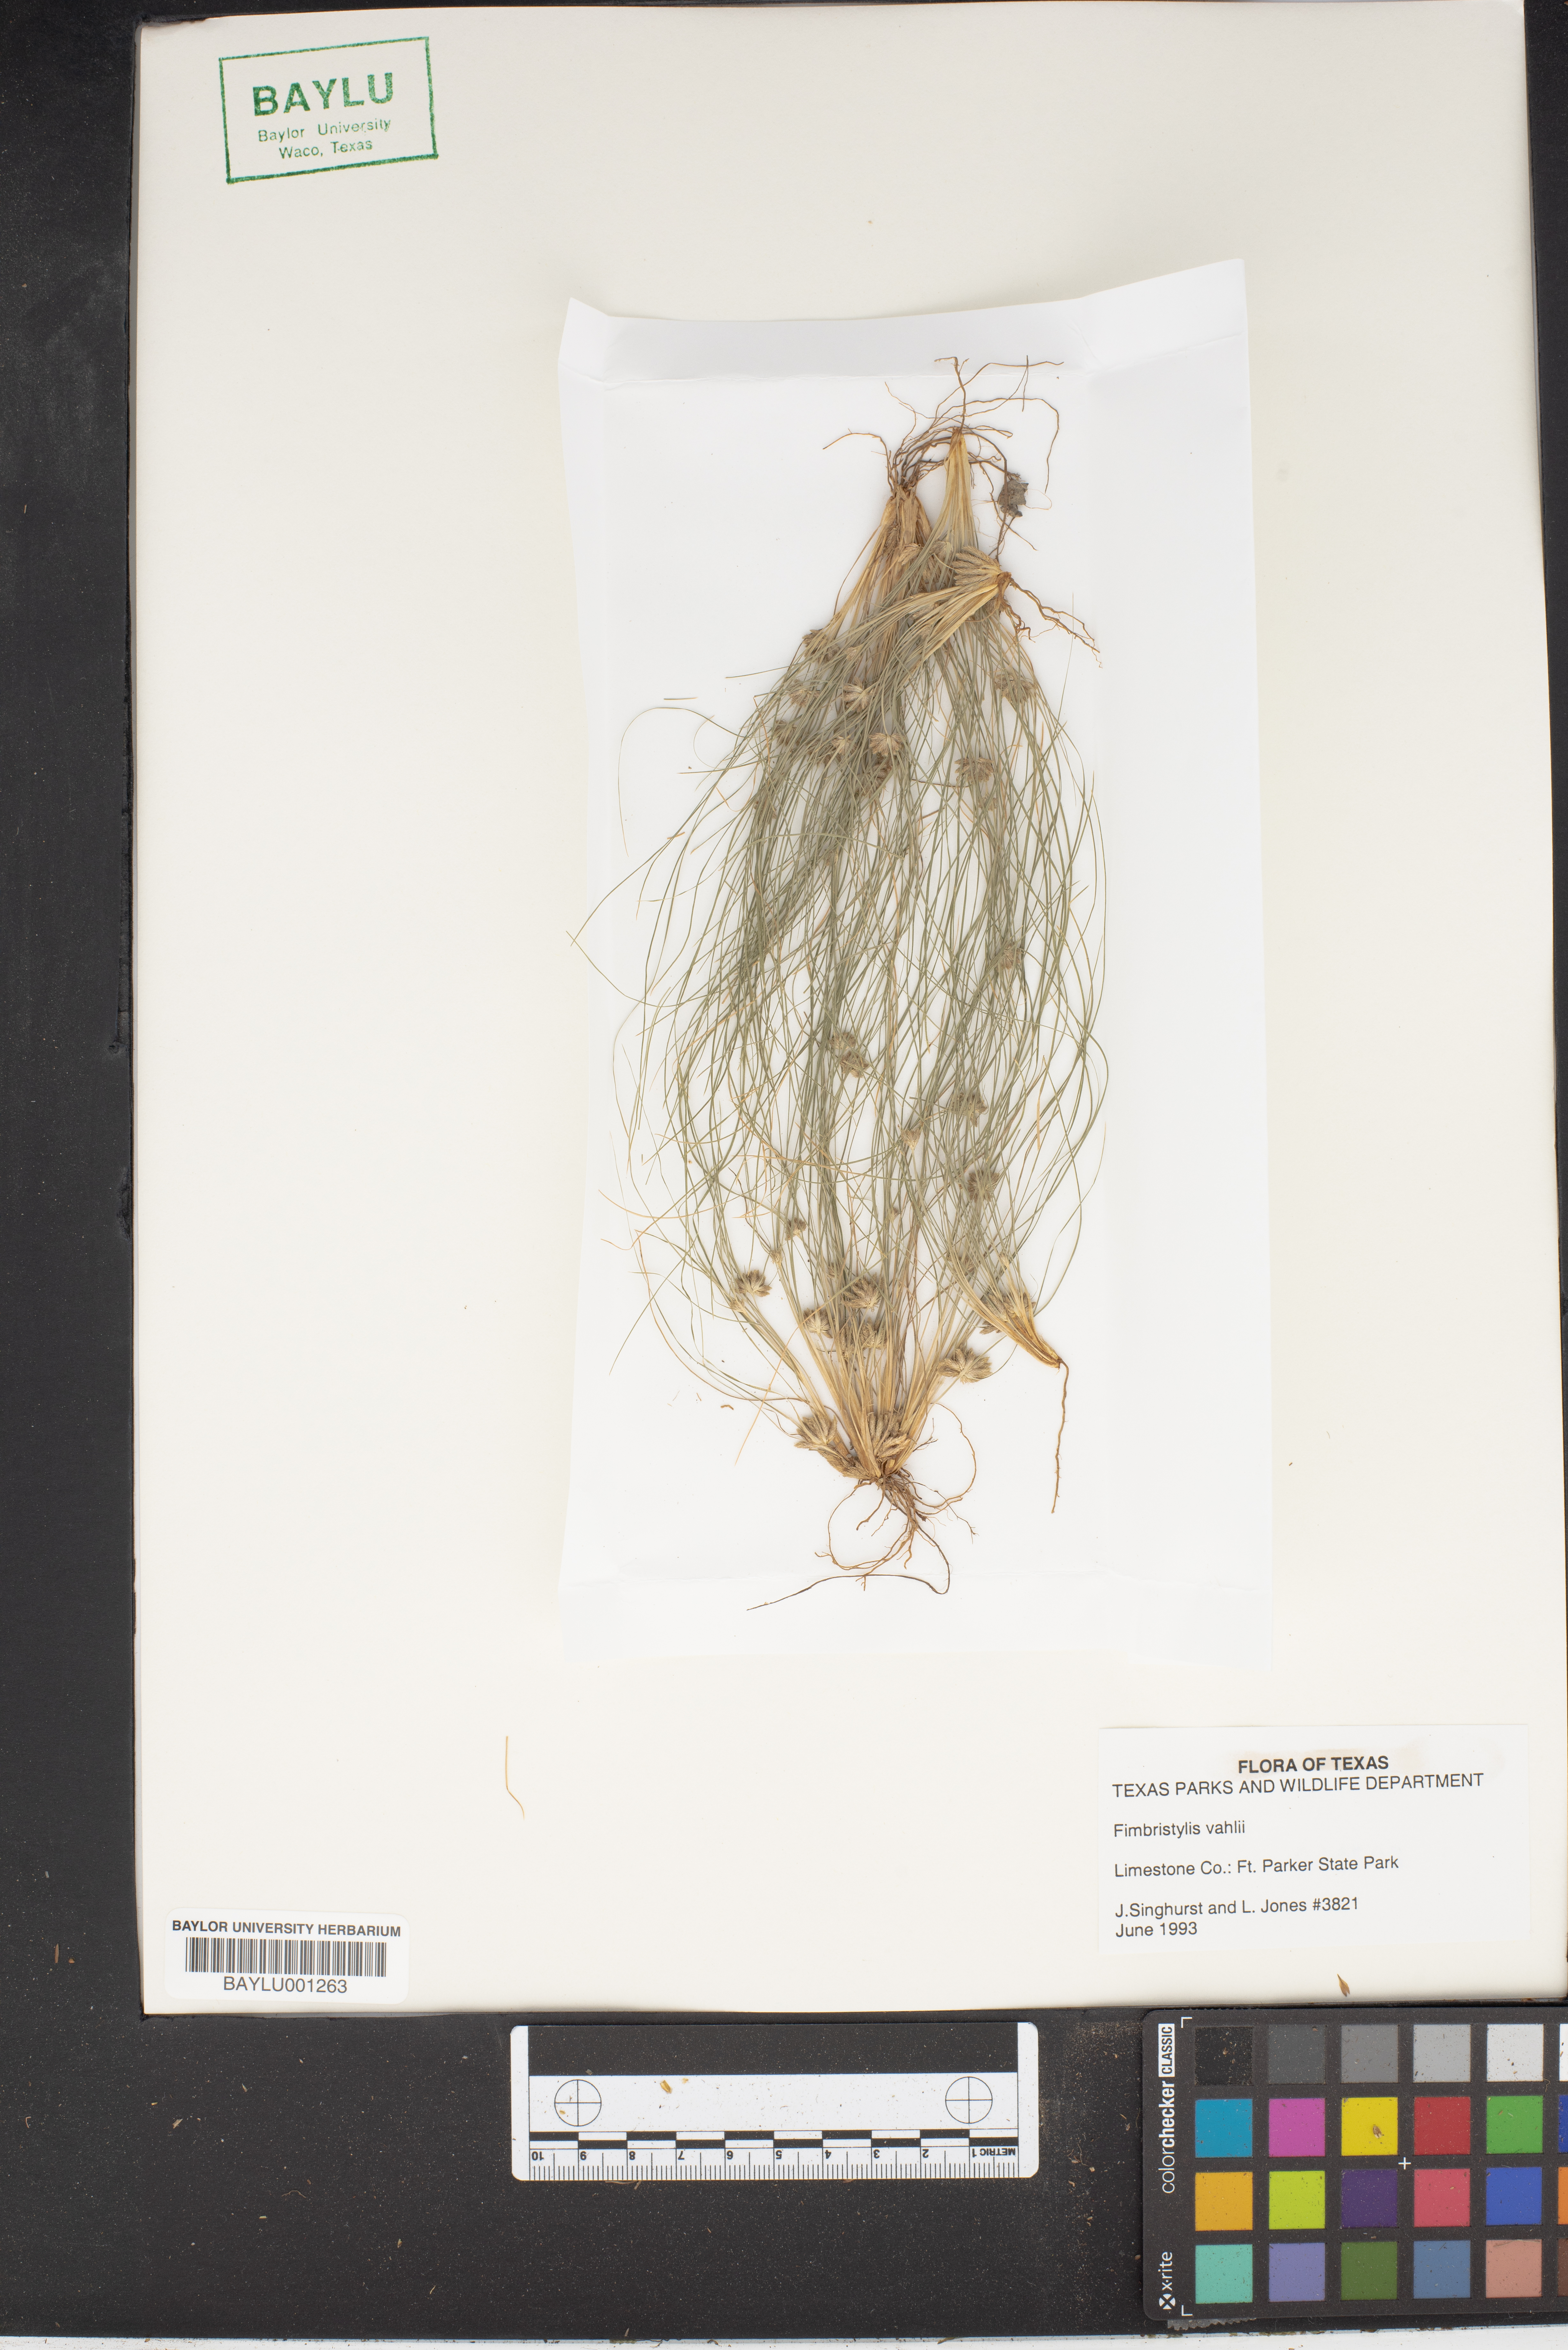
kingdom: Plantae
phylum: Tracheophyta
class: Liliopsida
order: Poales
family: Cyperaceae
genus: Fimbristylis
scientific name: Fimbristylis vahlii
